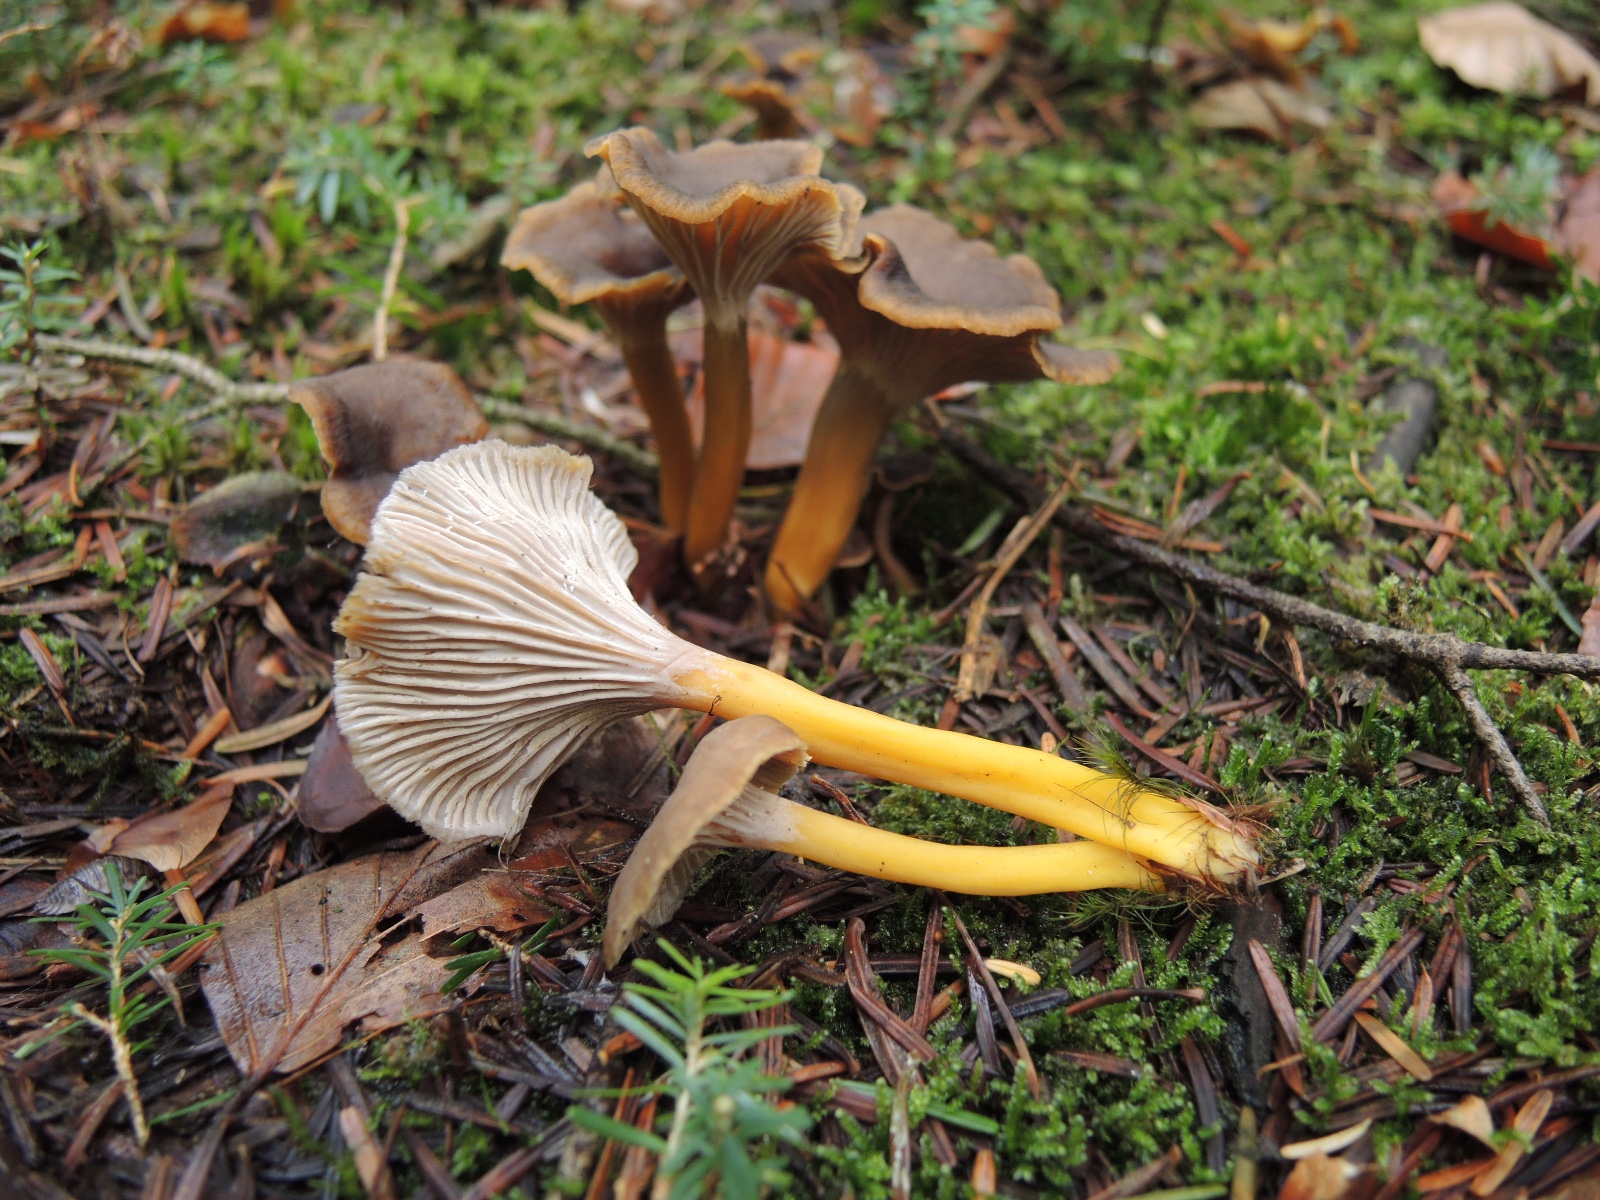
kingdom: Fungi
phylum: Basidiomycota
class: Agaricomycetes
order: Cantharellales
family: Hydnaceae
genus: Craterellus
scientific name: Craterellus tubaeformis
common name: tragt-kantarel
